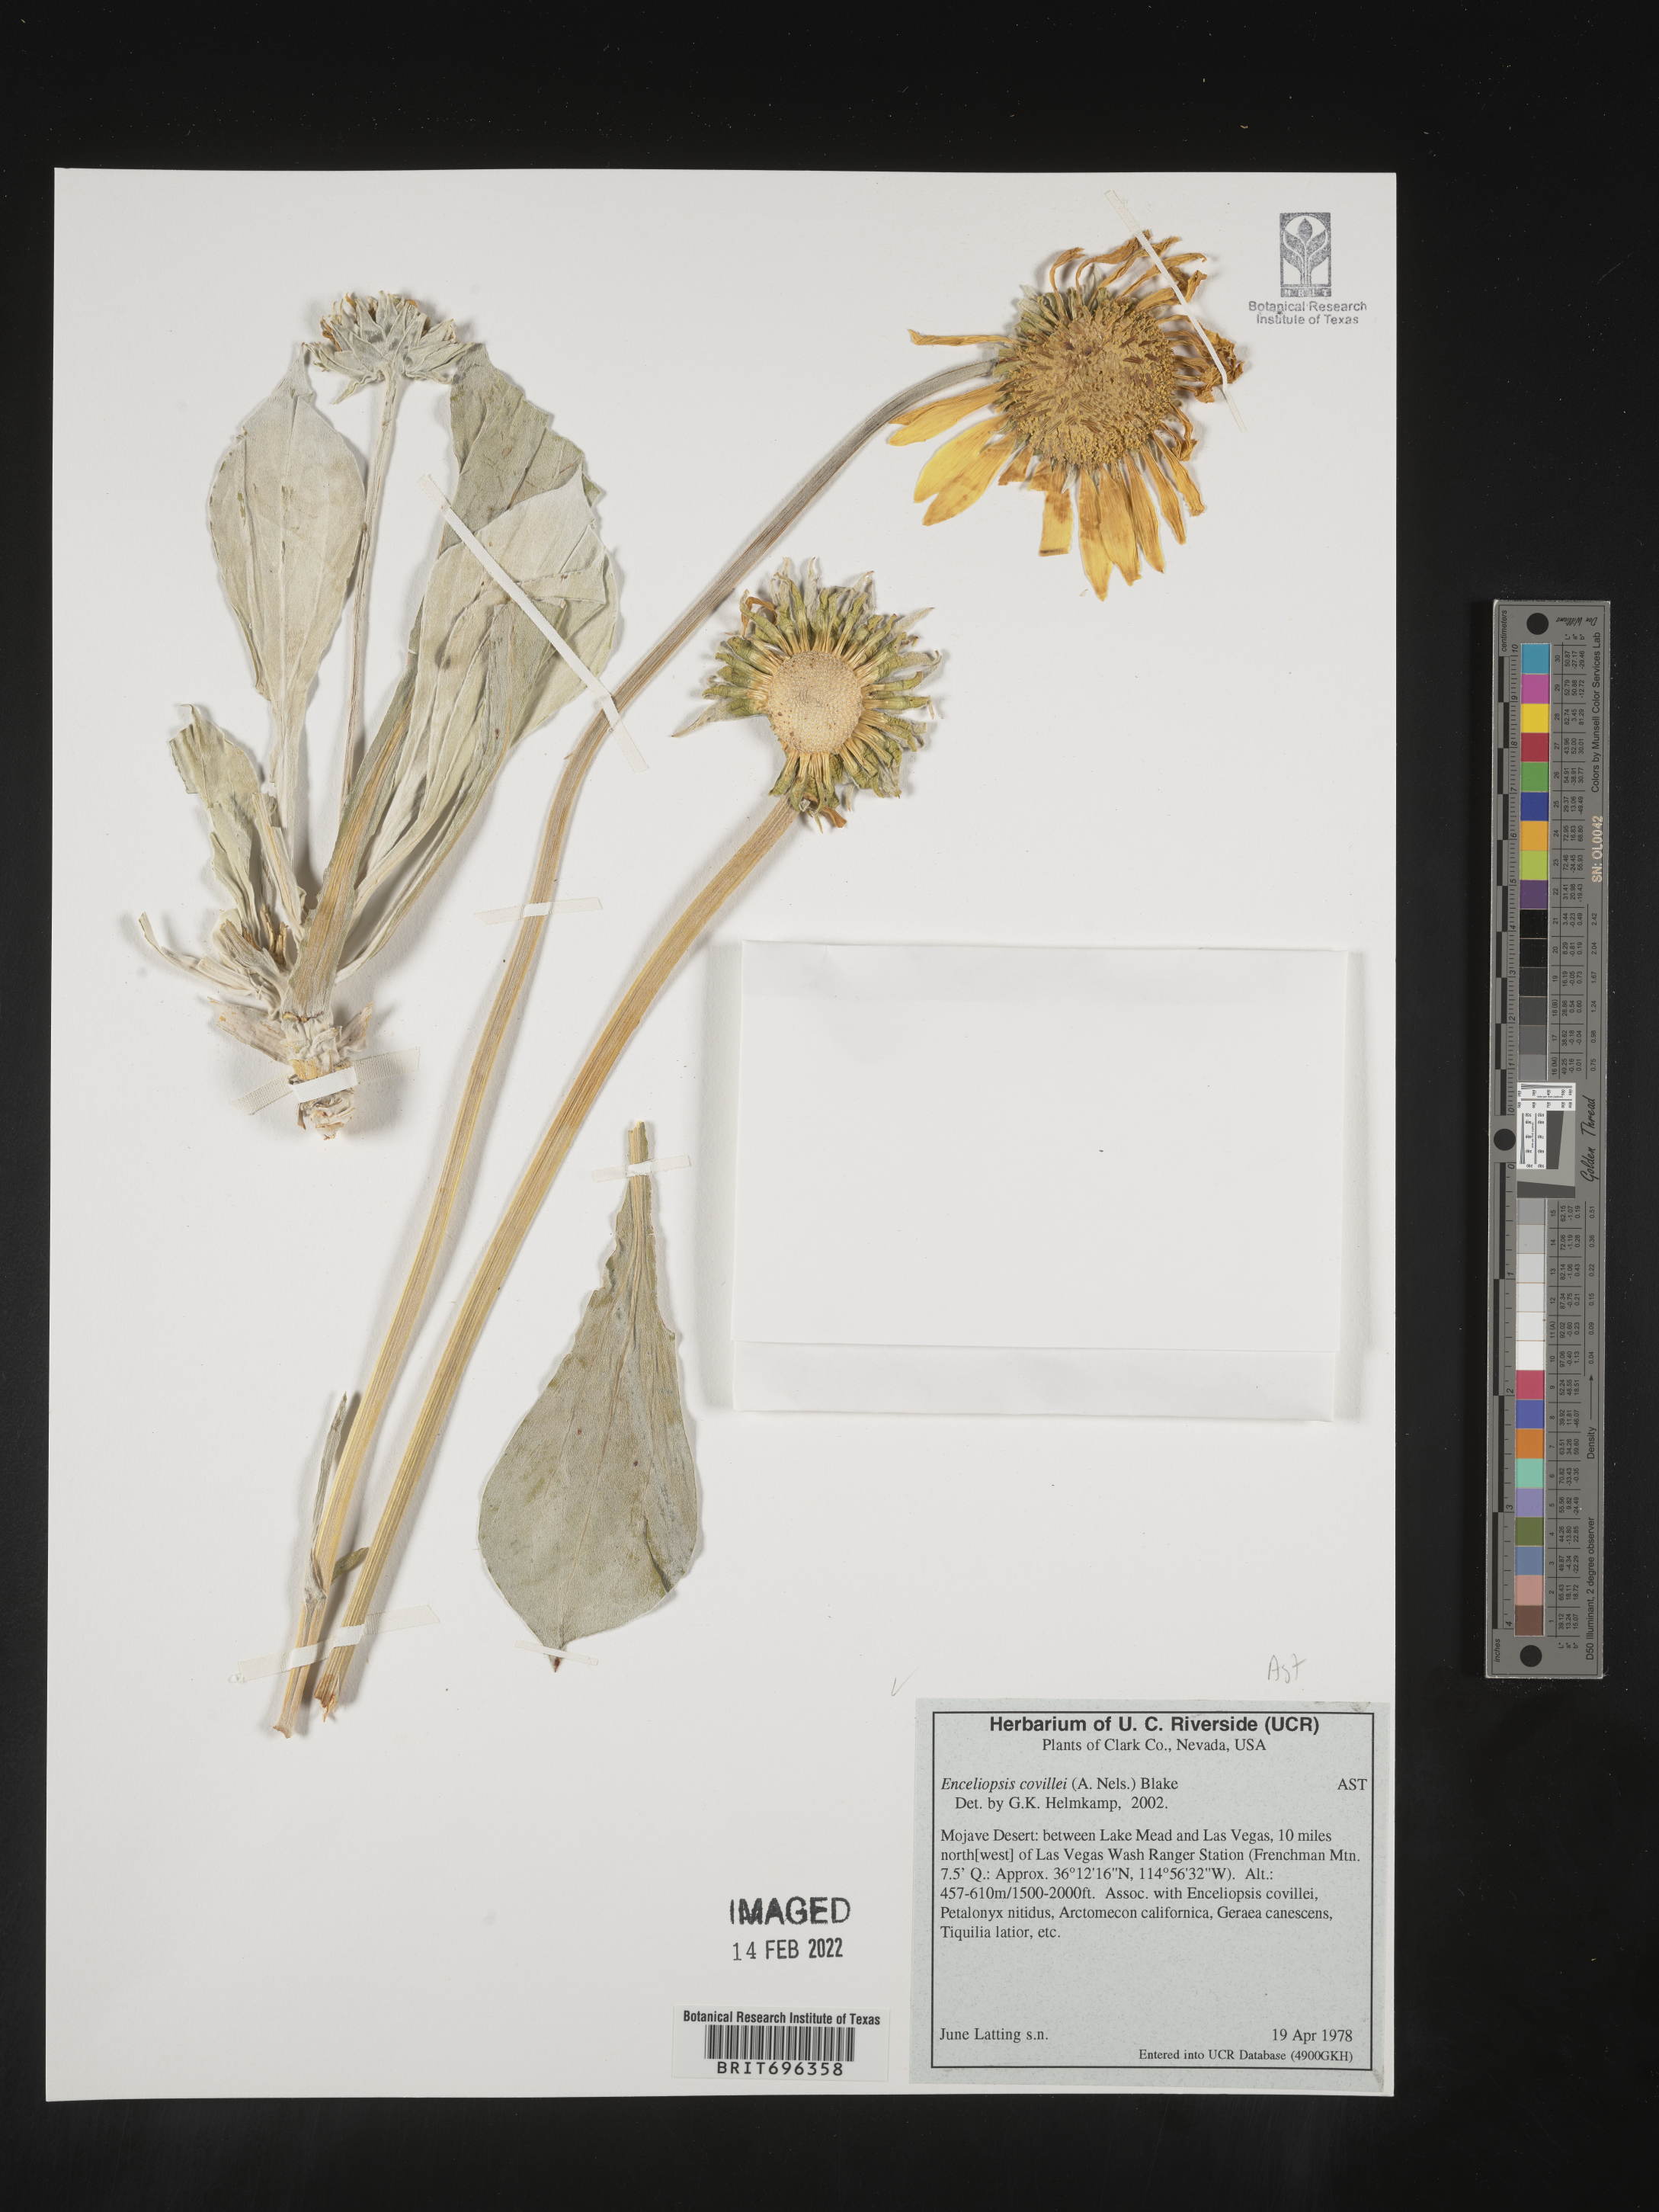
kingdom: Plantae
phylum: Tracheophyta
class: Magnoliopsida
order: Asterales
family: Asteraceae
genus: Enceliopsis
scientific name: Enceliopsis covillei
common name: Panamint daisy
